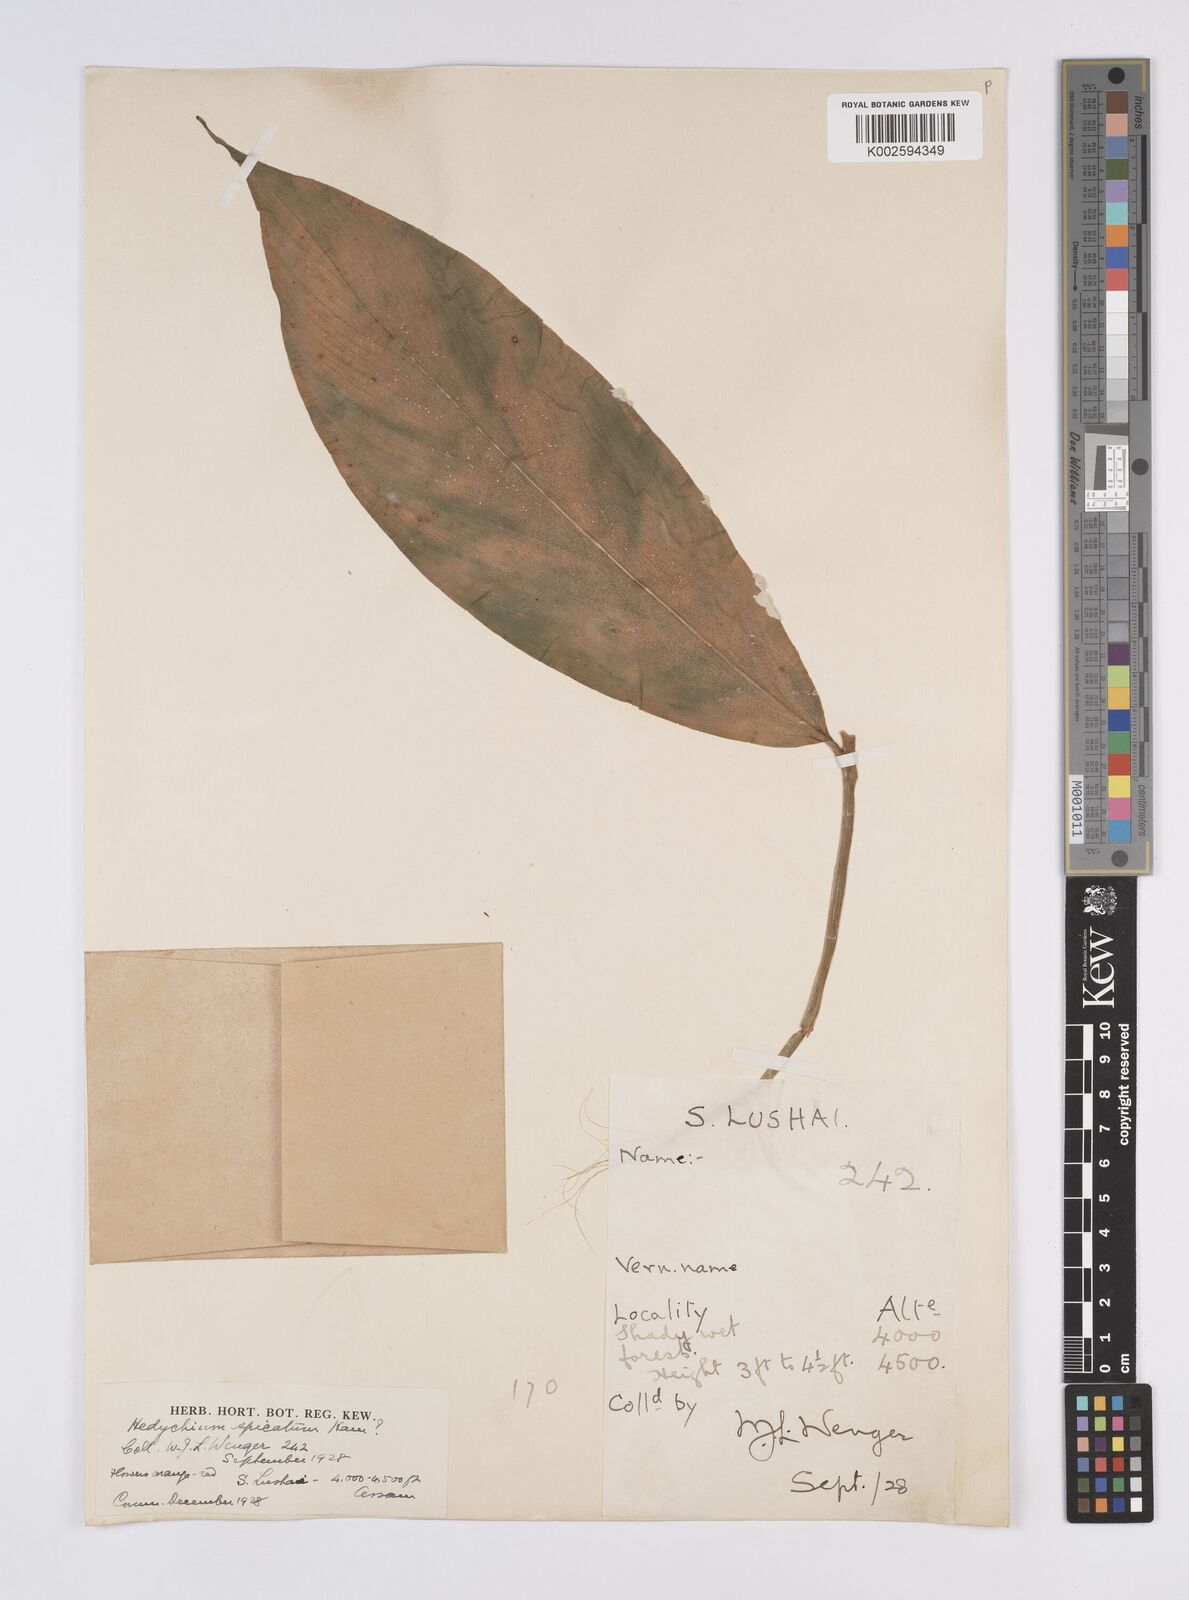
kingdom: Plantae
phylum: Tracheophyta
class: Liliopsida
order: Zingiberales
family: Zingiberaceae
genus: Hedychium
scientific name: Hedychium greenii
